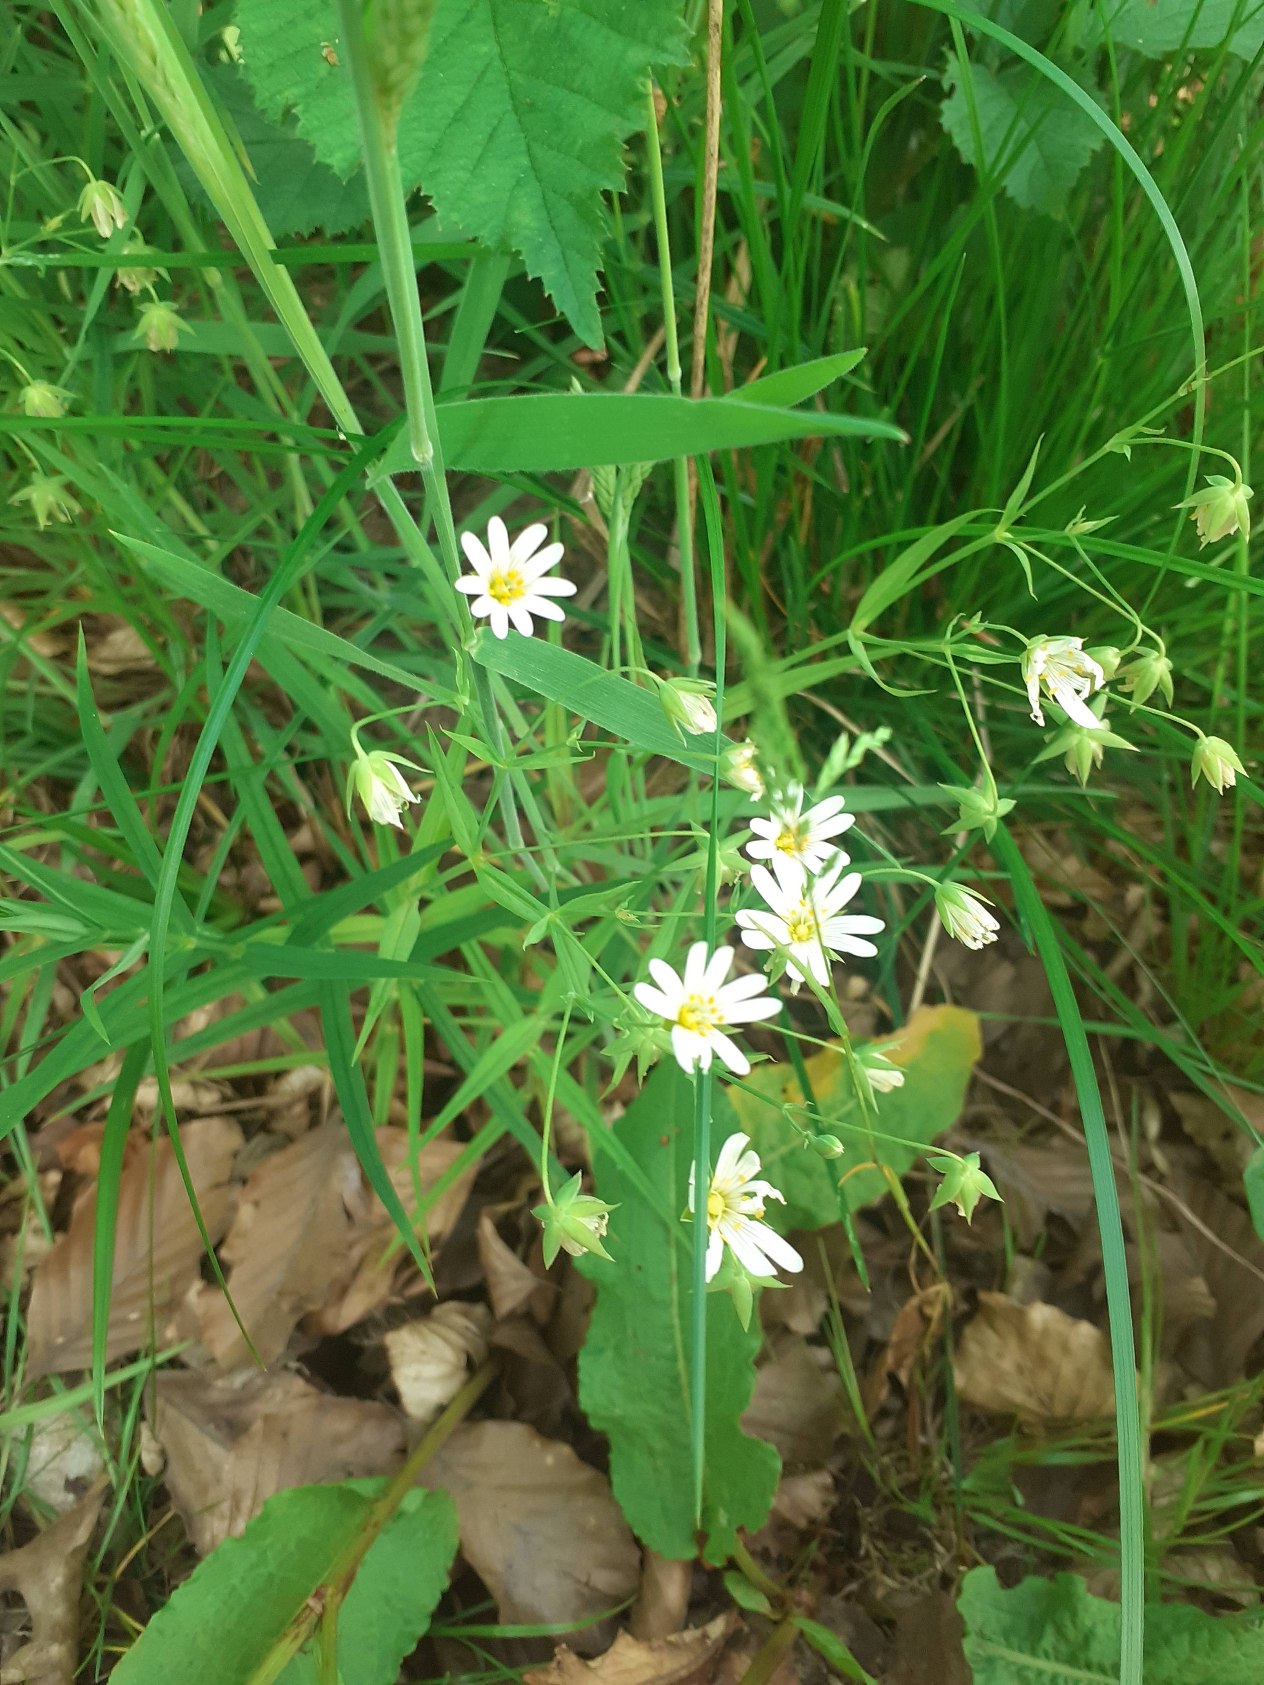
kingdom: Plantae
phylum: Tracheophyta
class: Magnoliopsida
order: Caryophyllales
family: Caryophyllaceae
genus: Rabelera
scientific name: Rabelera holostea
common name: Stor fladstjerne
